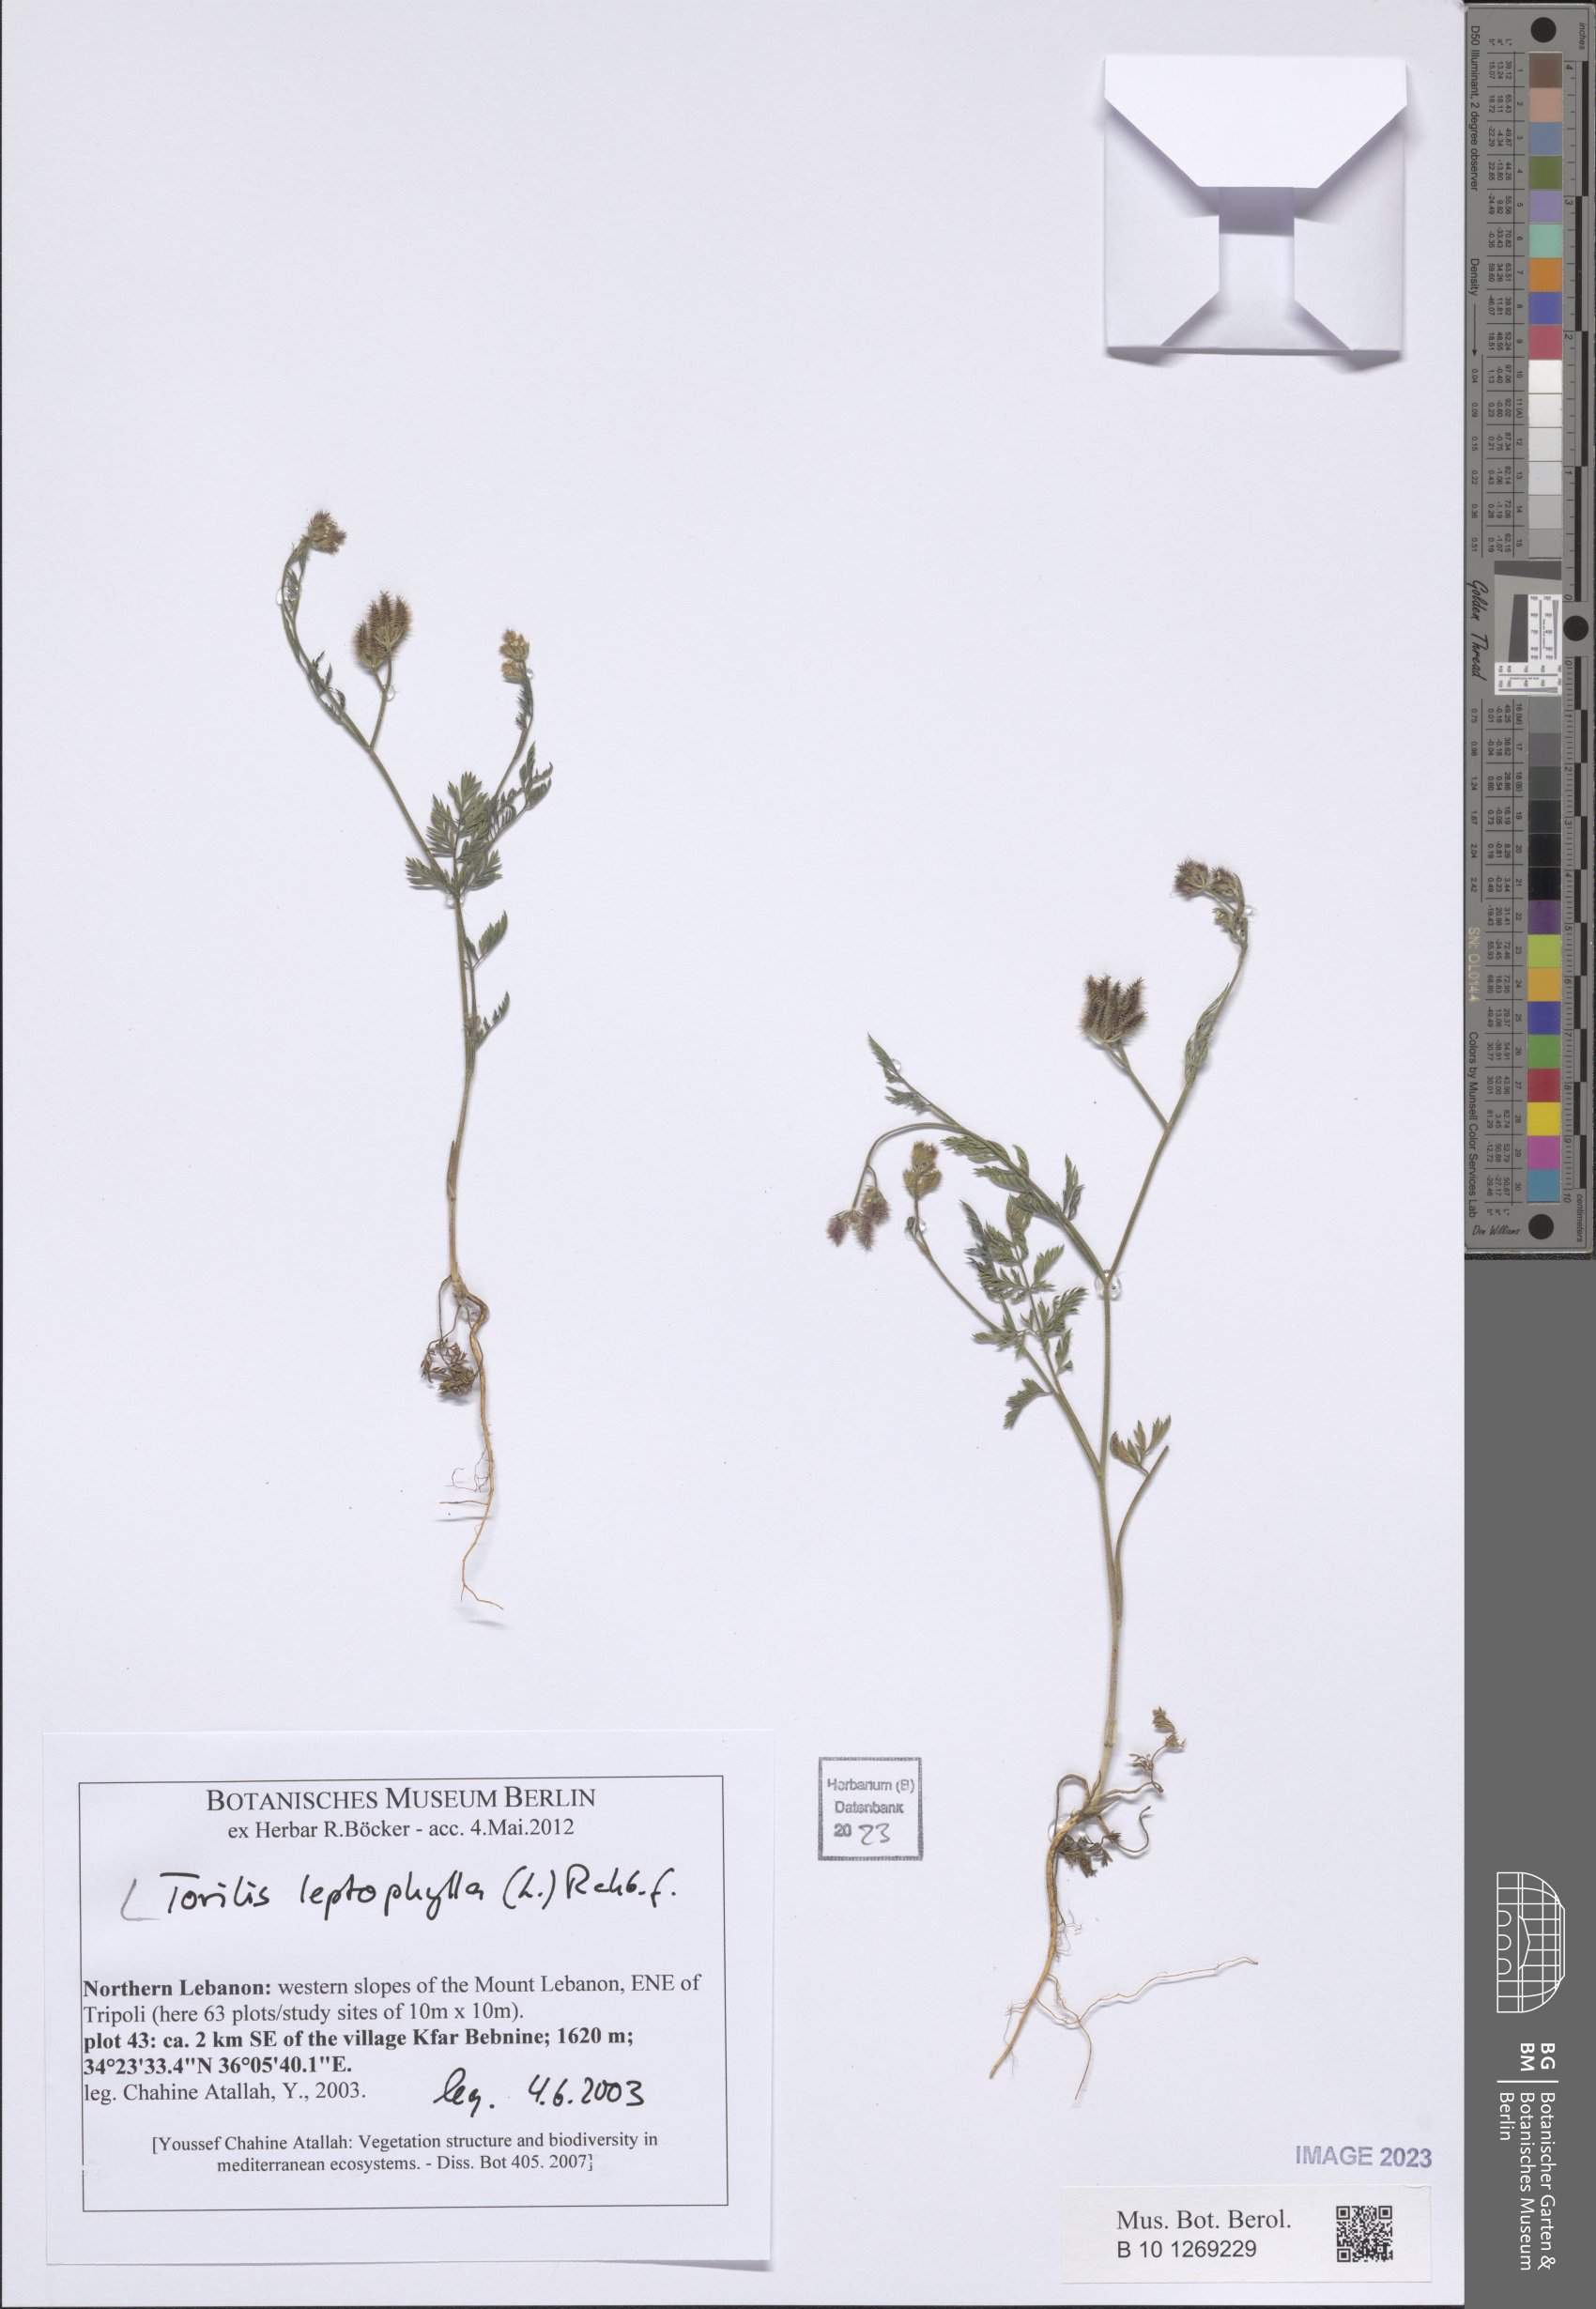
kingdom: Plantae
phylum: Tracheophyta
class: Magnoliopsida
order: Apiales
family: Apiaceae
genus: Torilis
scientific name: Torilis leptophylla
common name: Bristlefruit hedgeparsley
